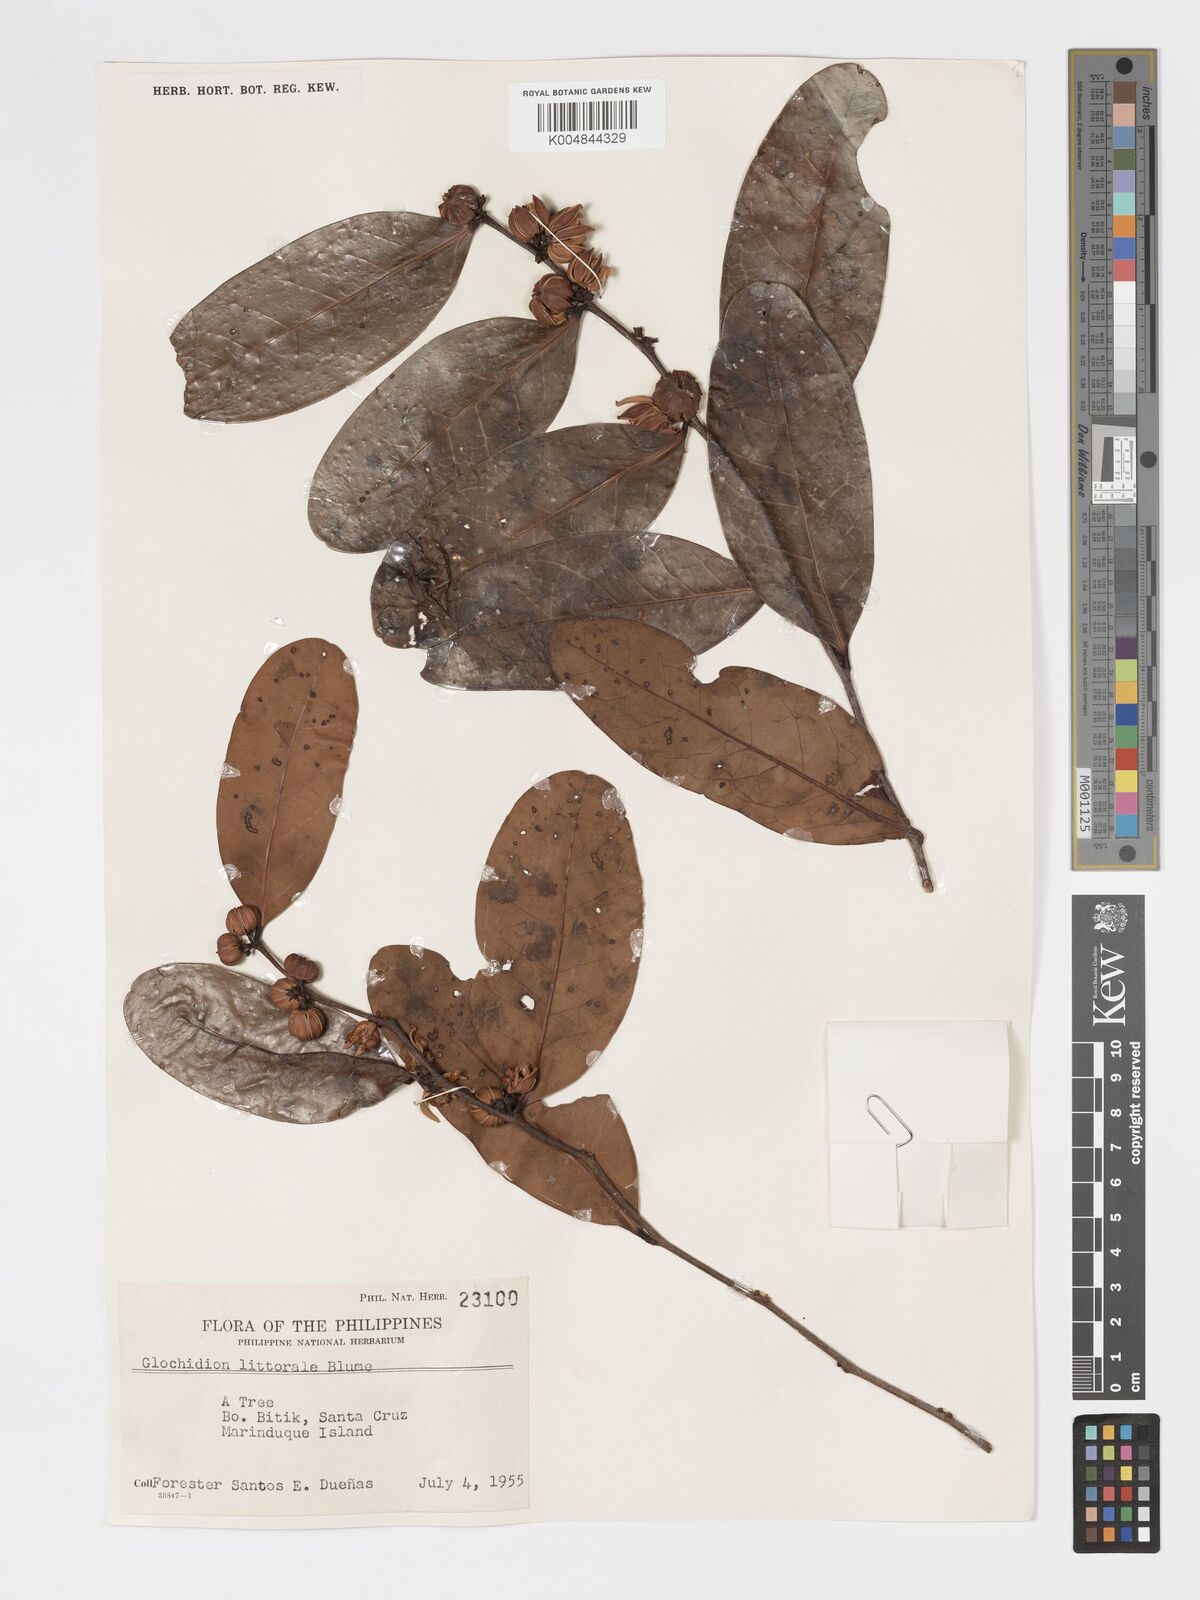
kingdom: Plantae
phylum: Tracheophyta
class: Magnoliopsida
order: Malpighiales
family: Phyllanthaceae
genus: Glochidion
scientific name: Glochidion
